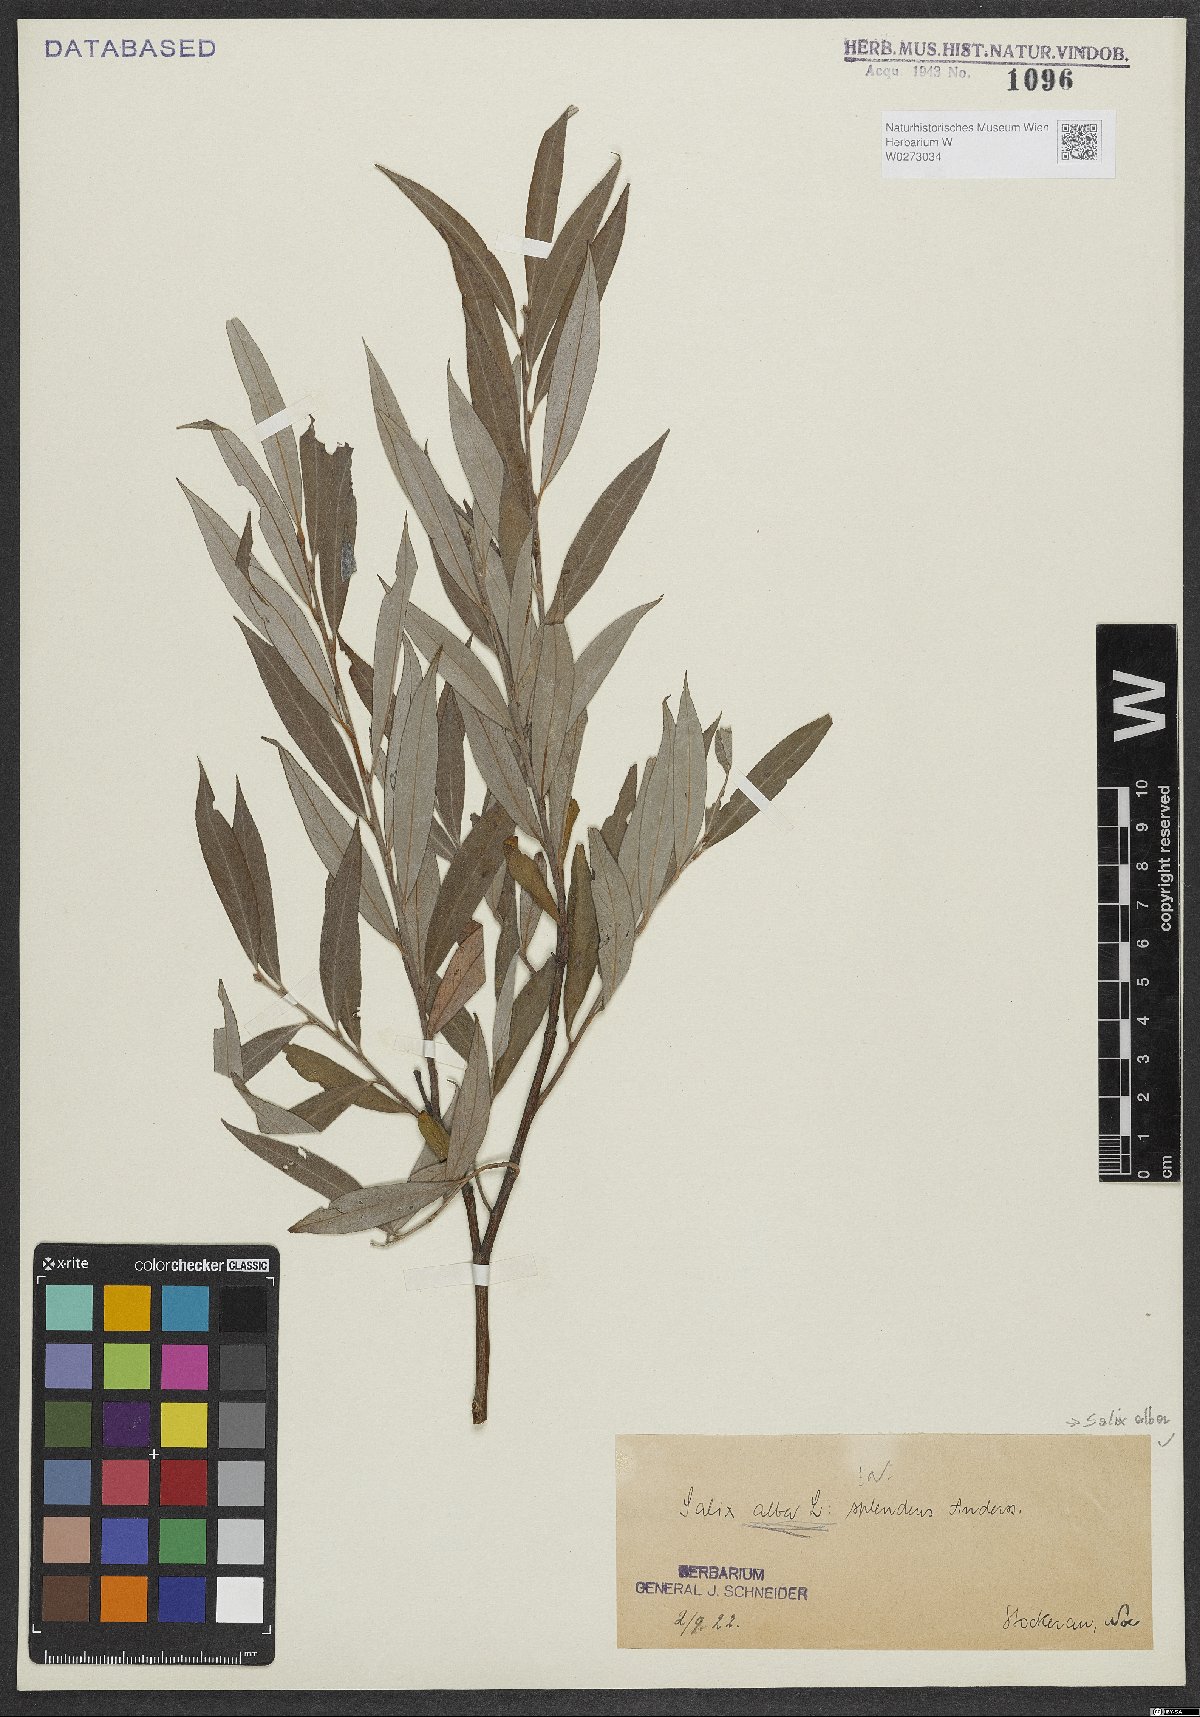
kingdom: Plantae
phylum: Tracheophyta
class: Magnoliopsida
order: Malpighiales
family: Salicaceae
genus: Salix
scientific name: Salix alba
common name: White willow
